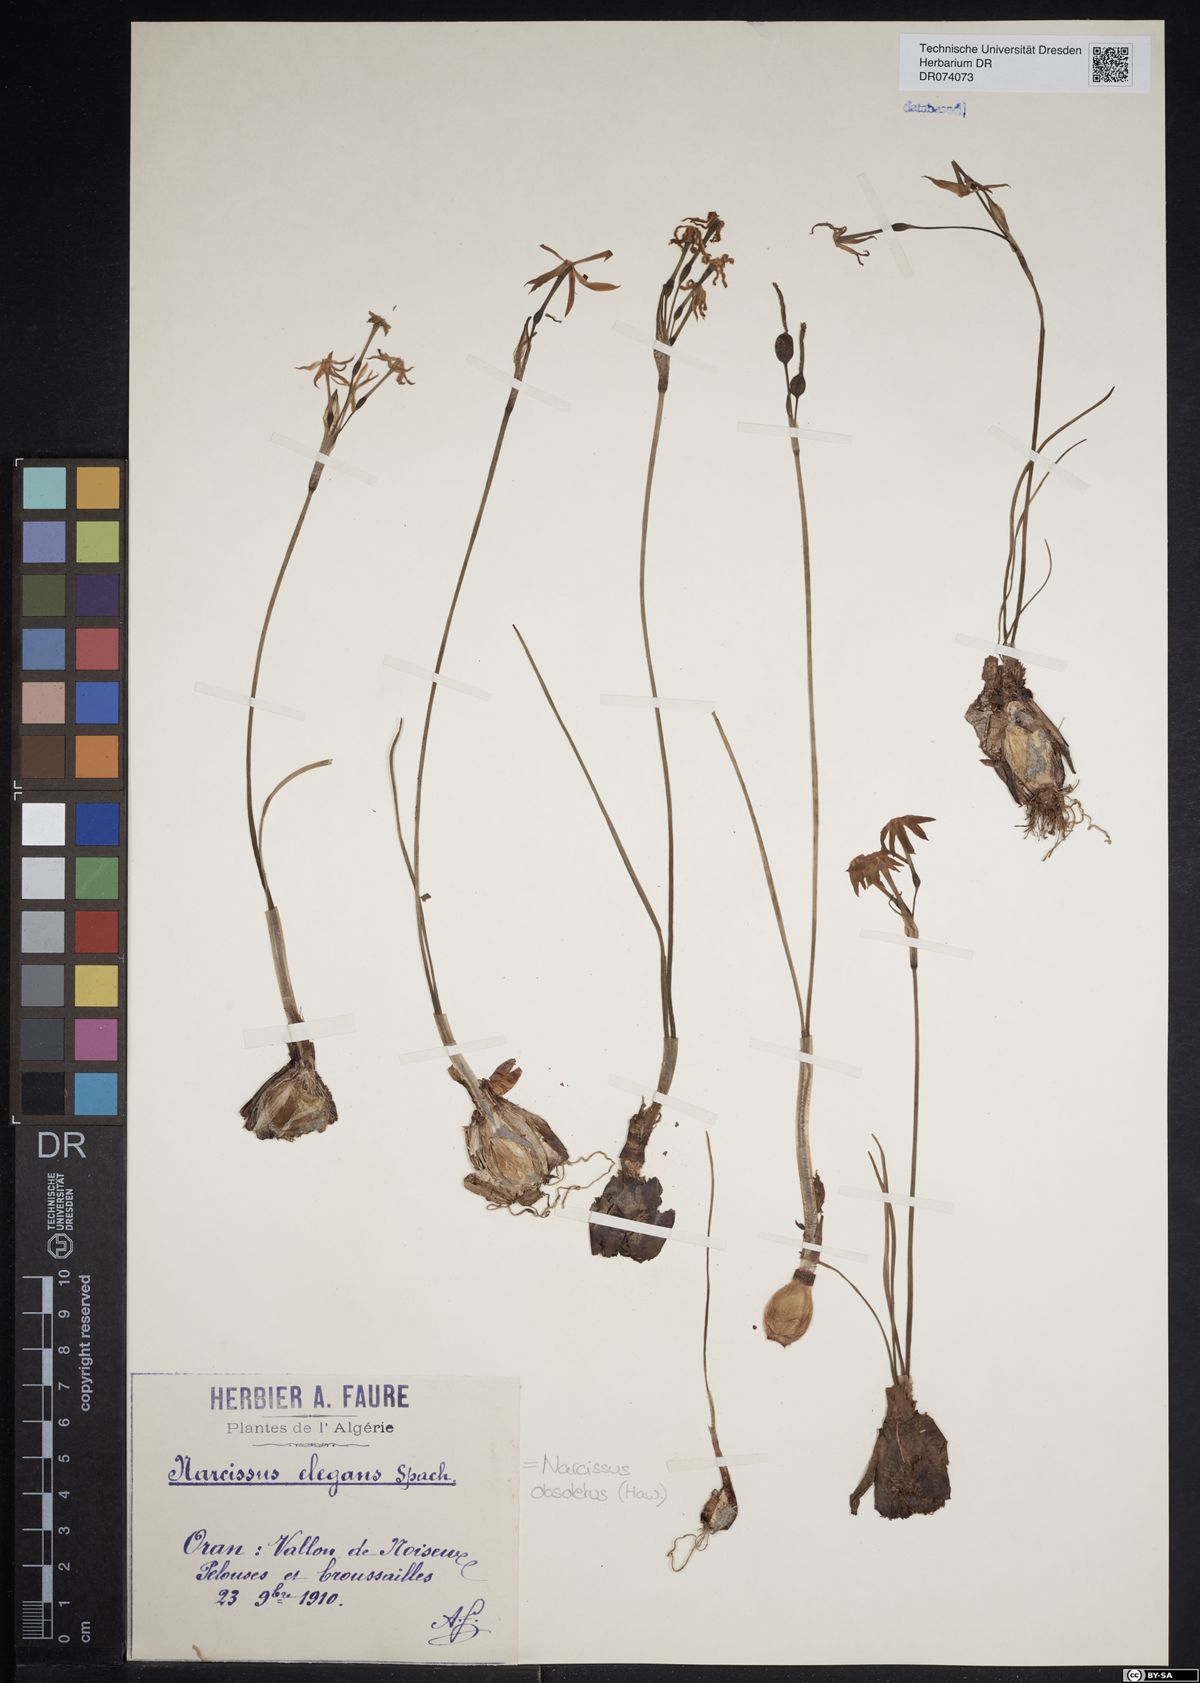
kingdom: Plantae
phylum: Tracheophyta
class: Liliopsida
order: Asparagales
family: Amaryllidaceae
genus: Narcissus
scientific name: Narcissus obsoletus
